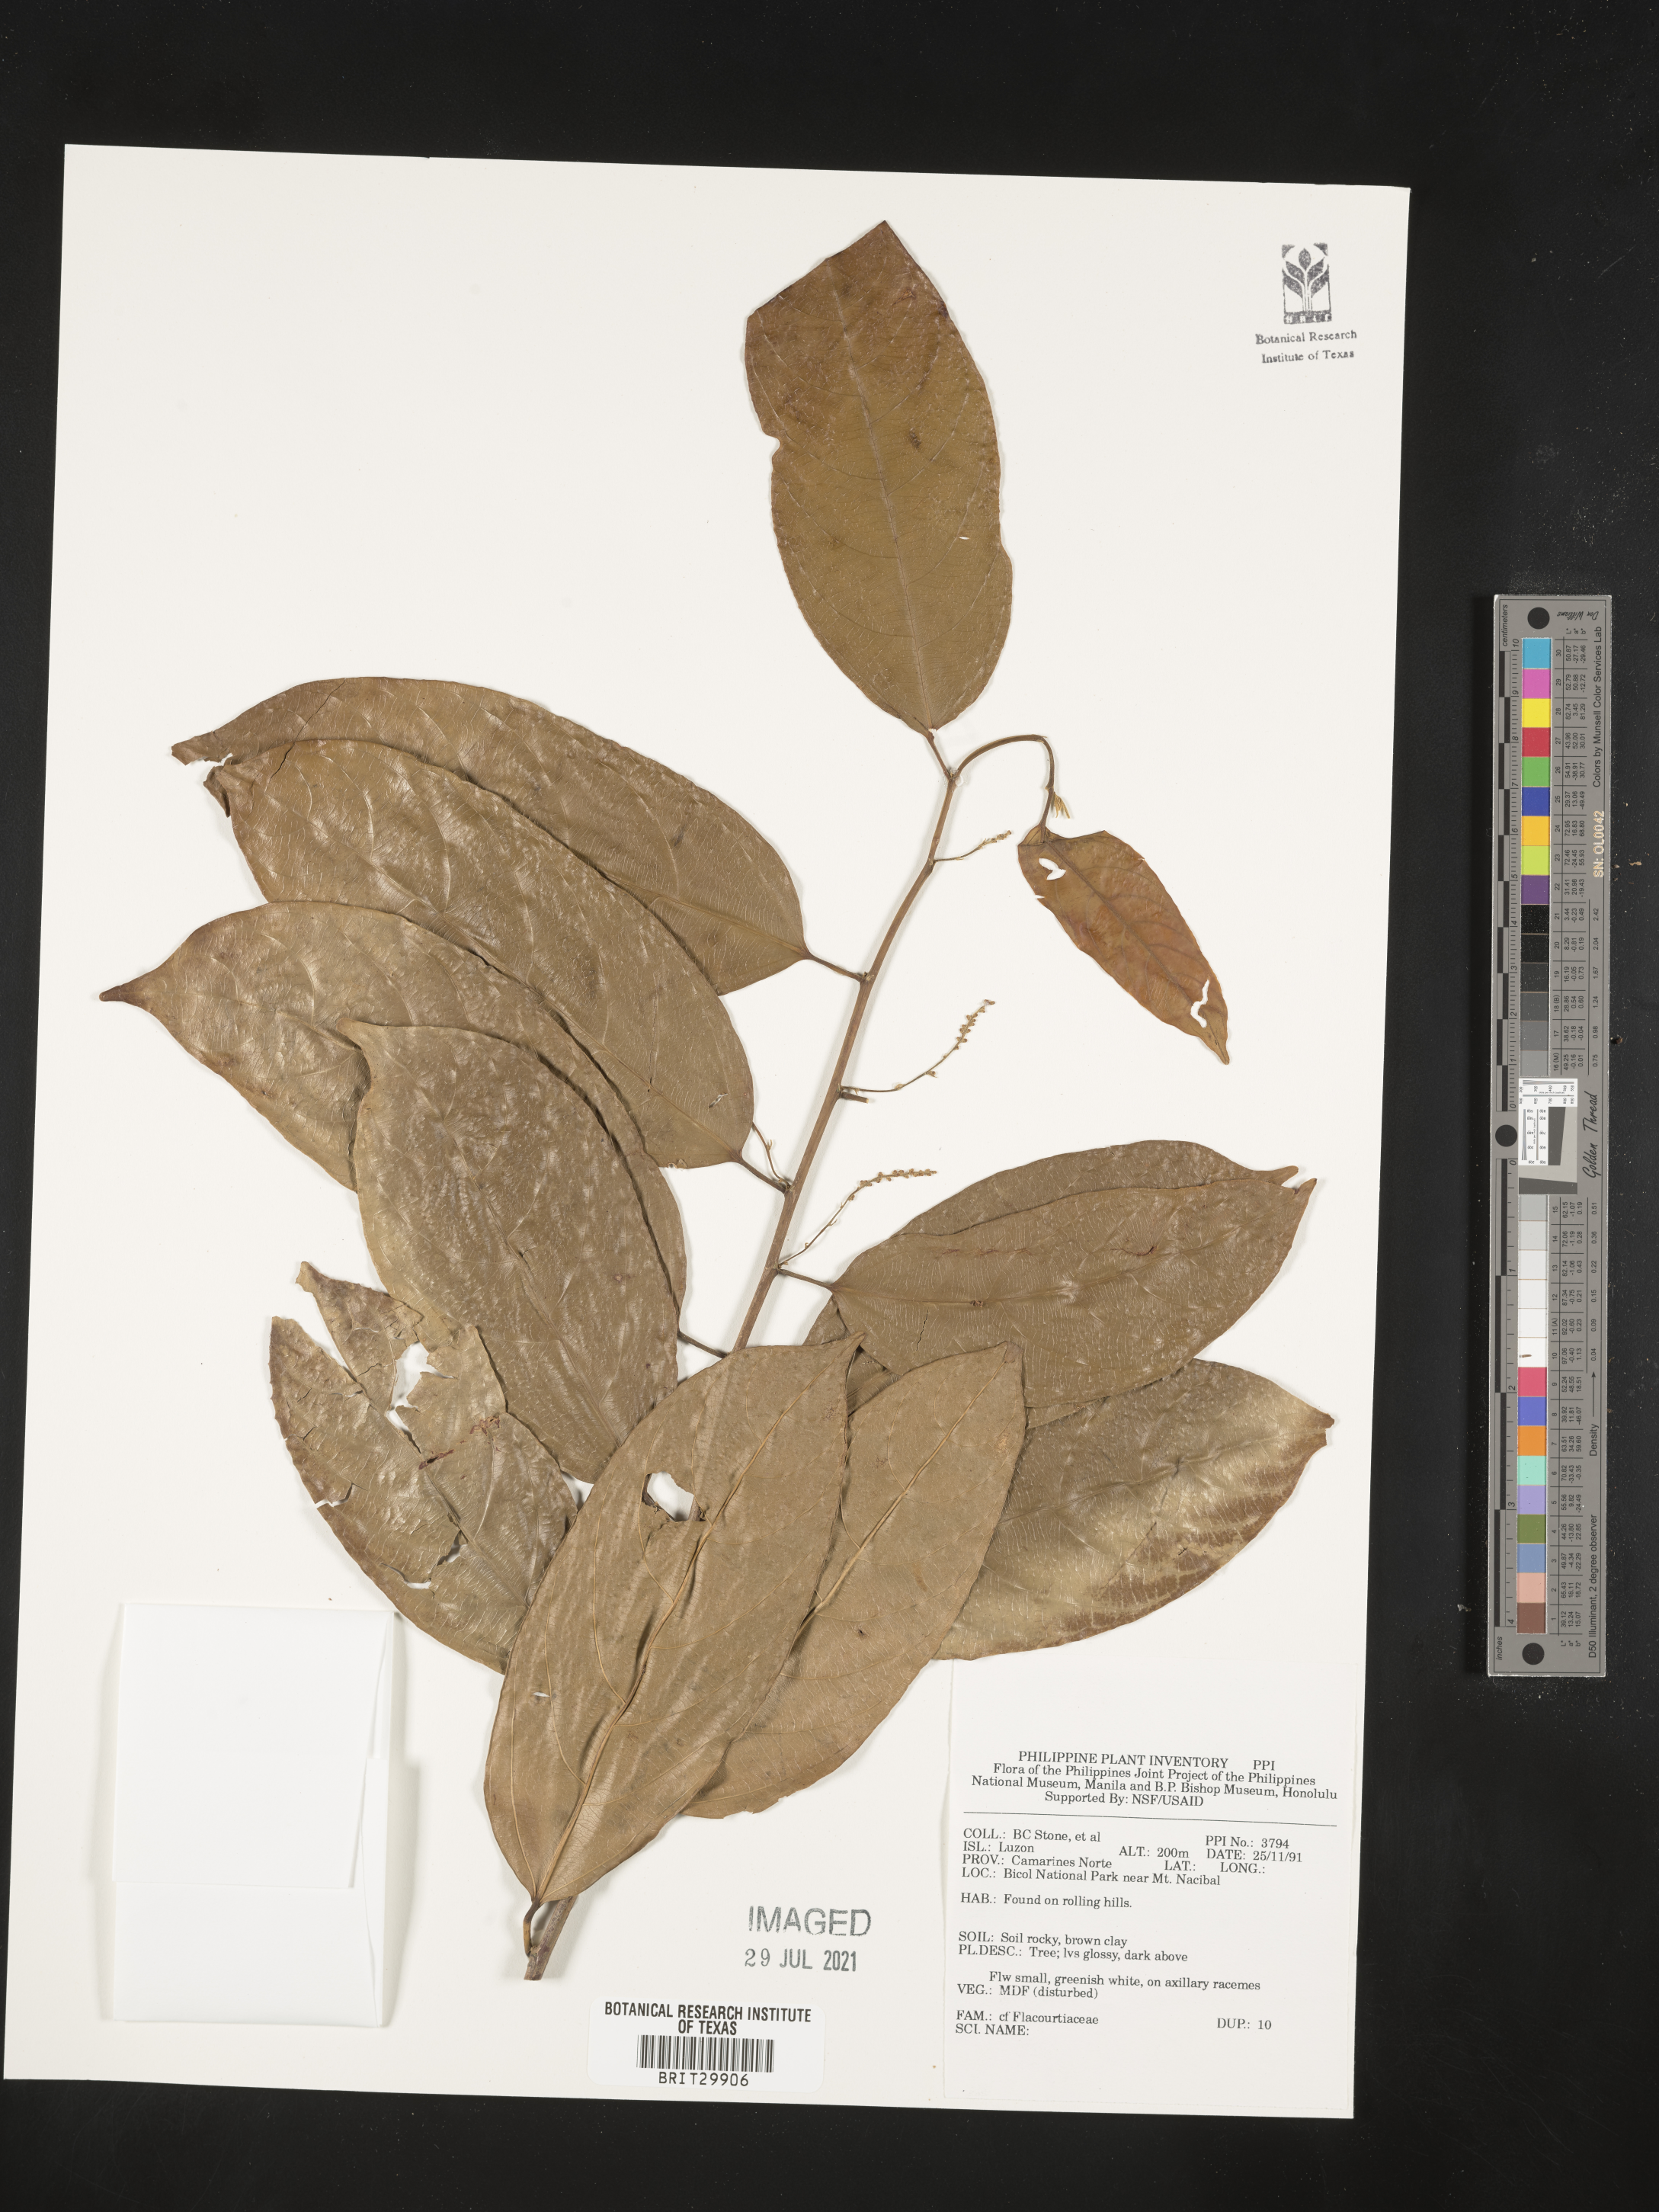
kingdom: Plantae
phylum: Tracheophyta
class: Magnoliopsida
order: Malpighiales
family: Flacourtiaceae
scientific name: Flacourtiaceae
